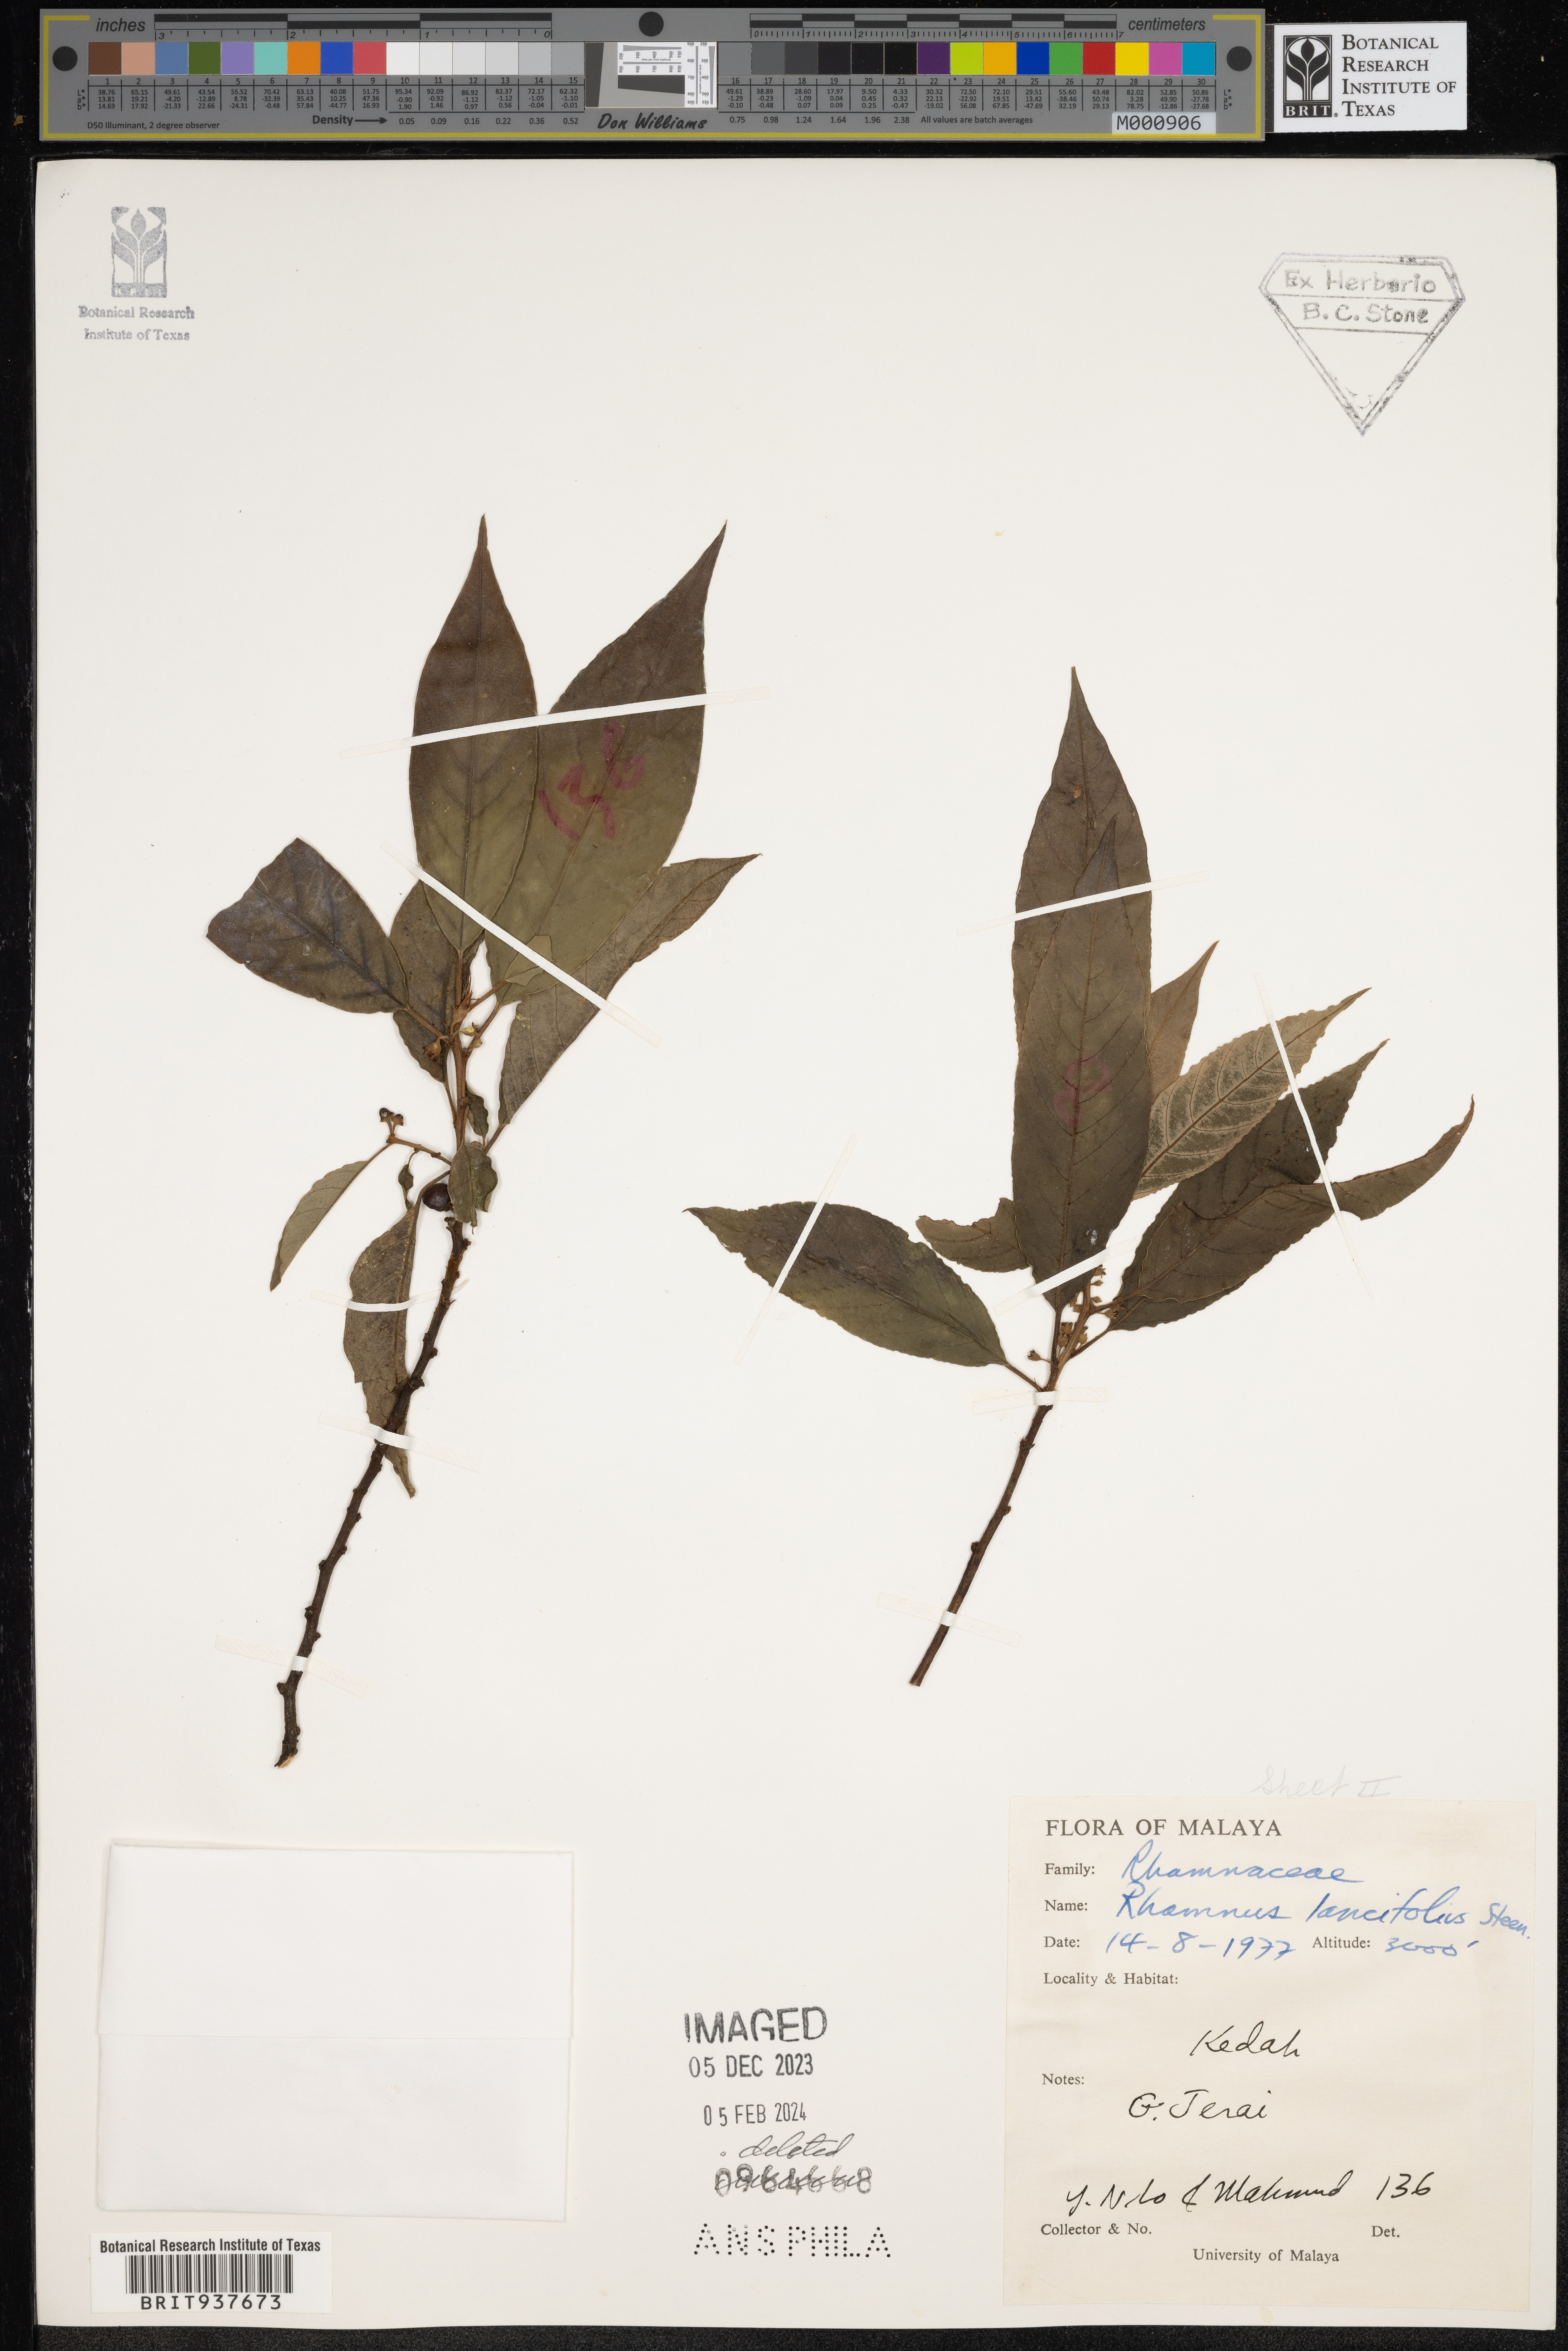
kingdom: Plantae
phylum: Tracheophyta
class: Magnoliopsida
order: Rosales
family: Rhamnaceae
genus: Rhamnus
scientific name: Rhamnus
